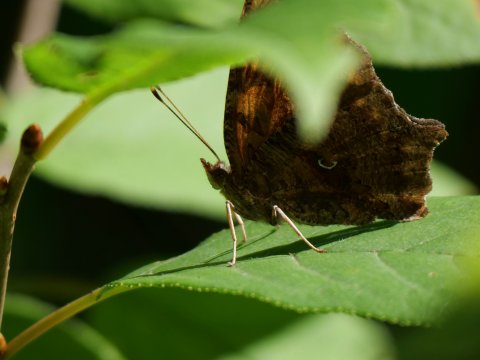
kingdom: Animalia
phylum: Arthropoda
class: Insecta
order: Lepidoptera
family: Nymphalidae
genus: Polygonia
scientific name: Polygonia comma
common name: Eastern Comma
